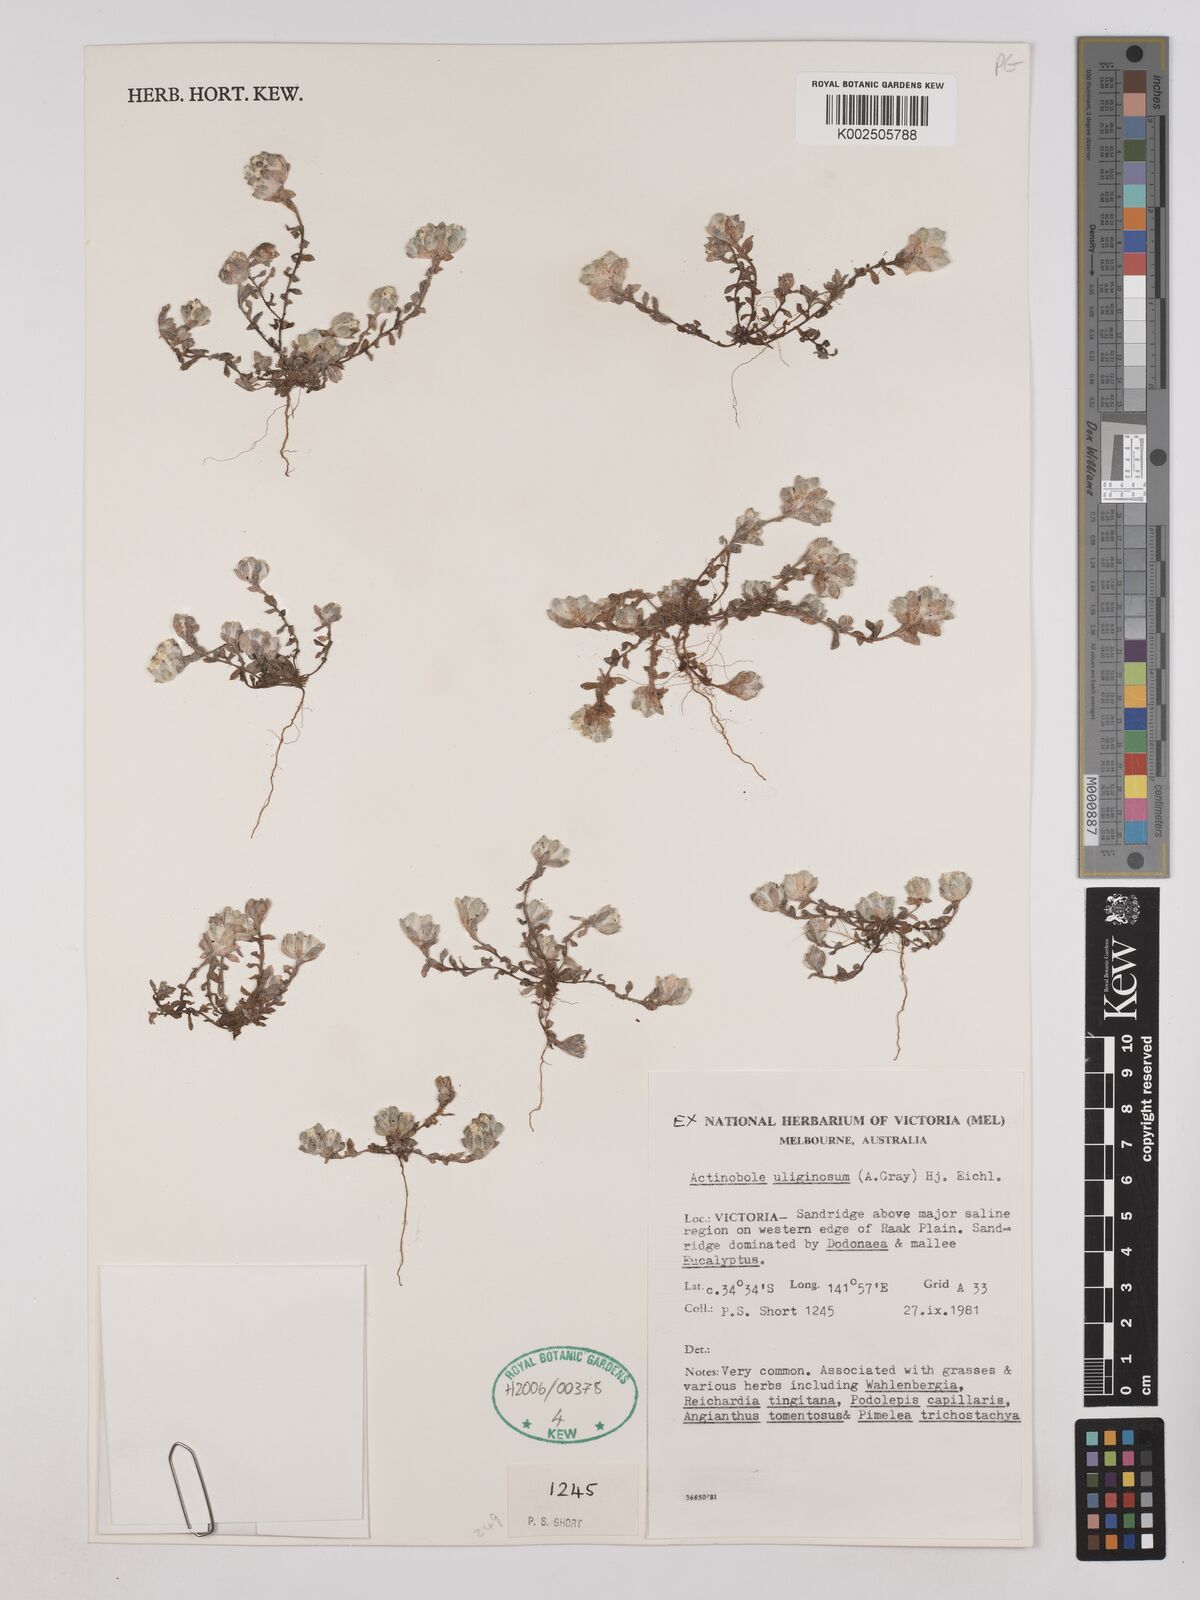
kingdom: Plantae
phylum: Tracheophyta
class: Magnoliopsida
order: Asterales
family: Asteraceae
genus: Actinobole
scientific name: Actinobole uliginosum
